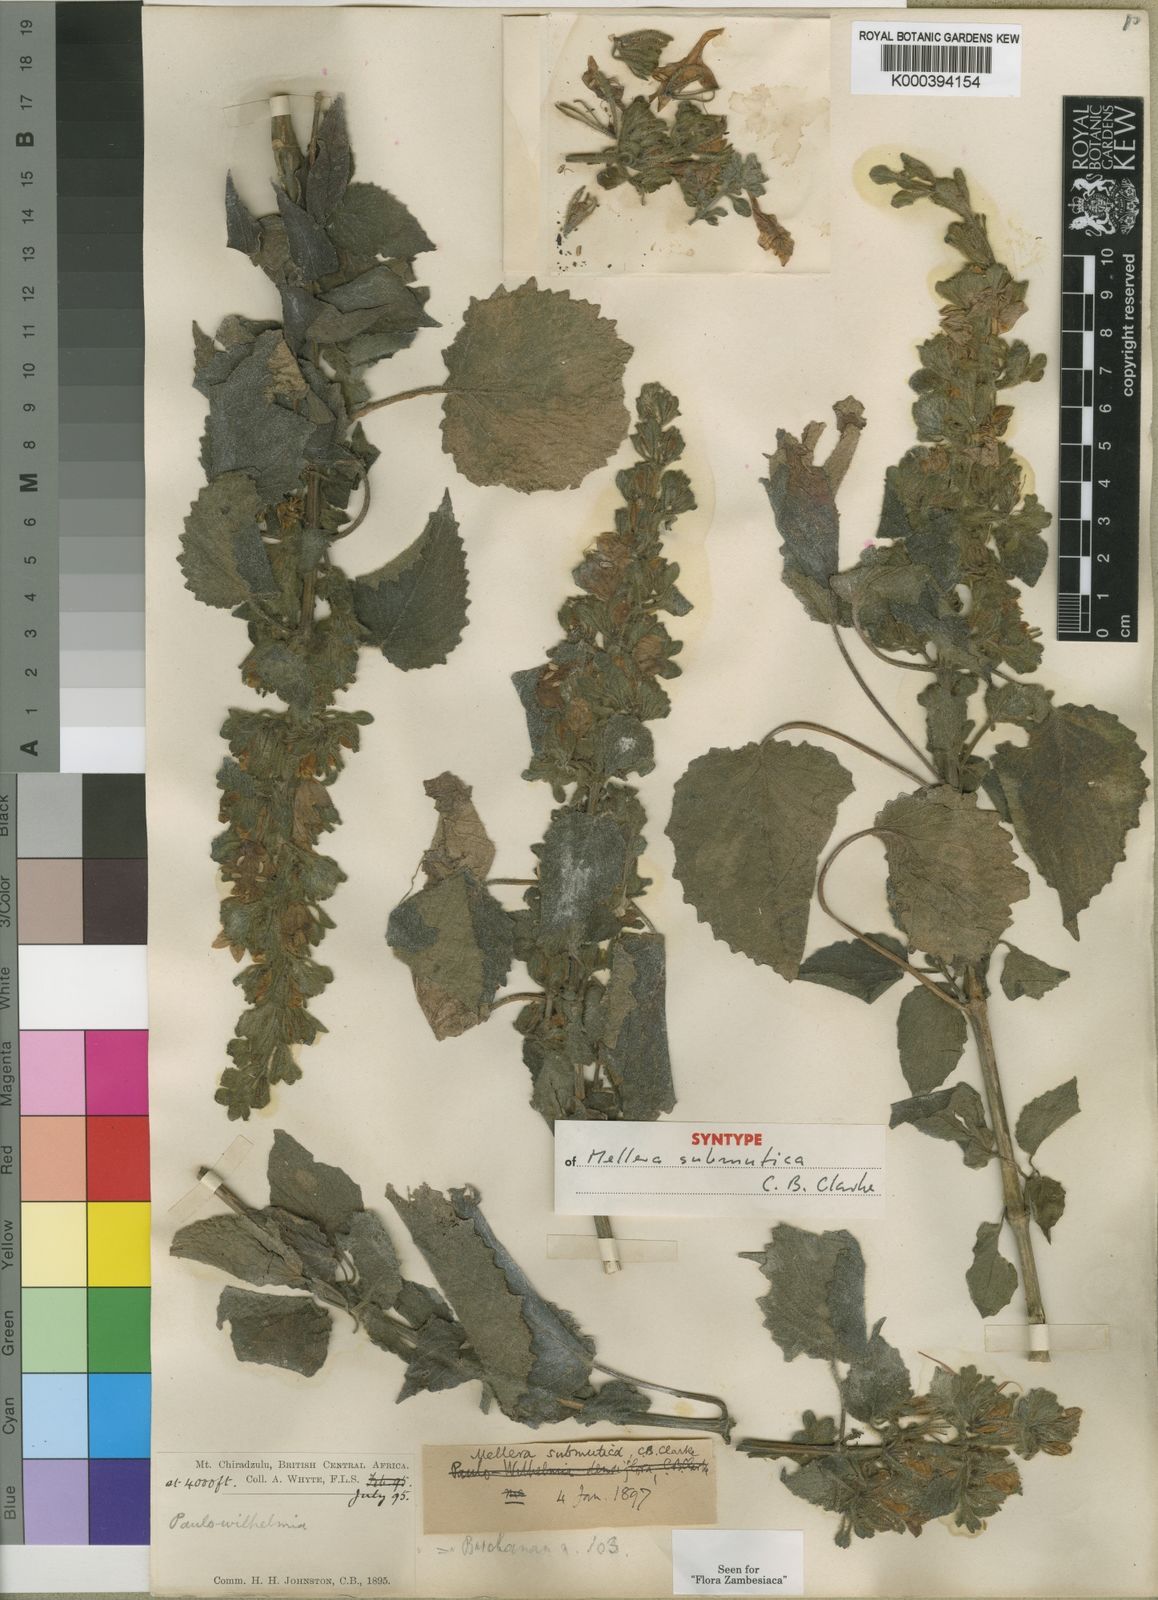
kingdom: Plantae
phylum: Tracheophyta
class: Magnoliopsida
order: Lamiales
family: Acanthaceae
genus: Mellera
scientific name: Mellera submutica
